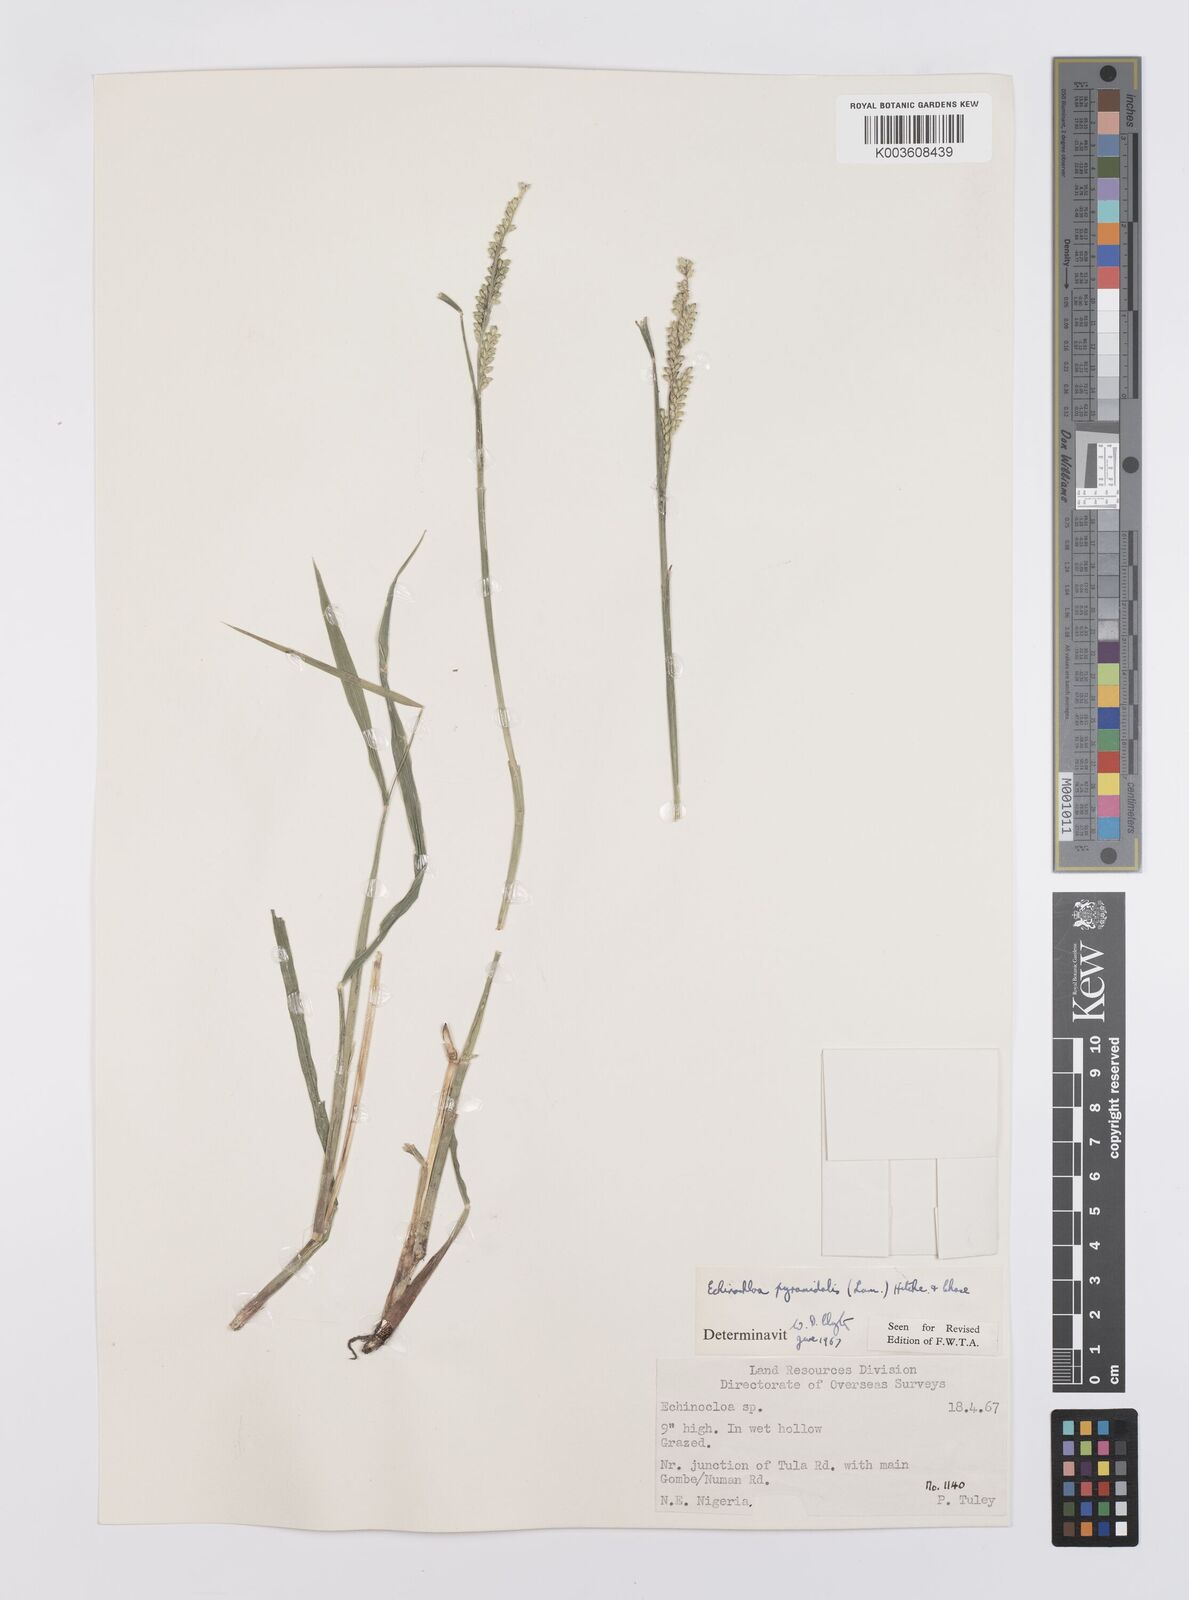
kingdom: Plantae
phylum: Tracheophyta
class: Liliopsida
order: Poales
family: Poaceae
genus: Echinochloa
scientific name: Echinochloa pyramidalis
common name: Antelope grass
